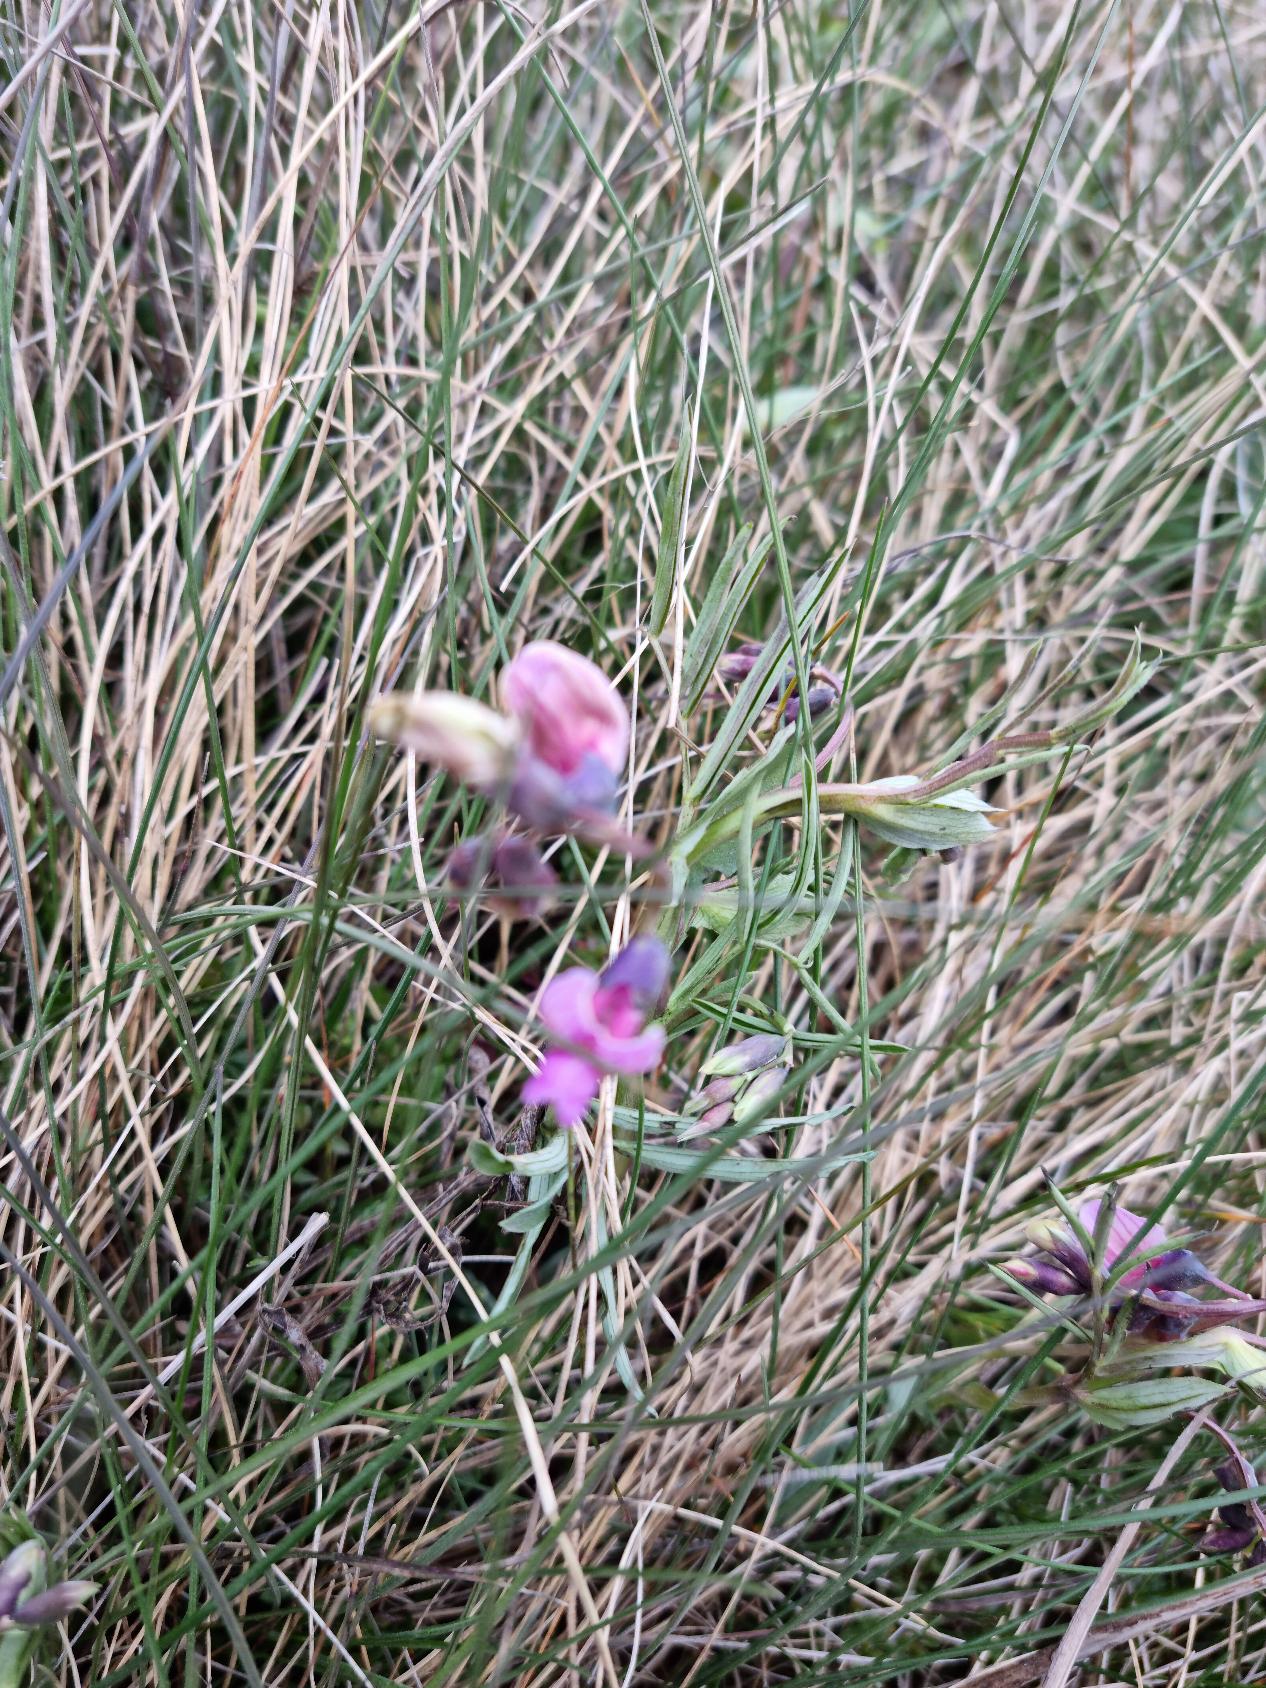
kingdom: Plantae
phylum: Tracheophyta
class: Magnoliopsida
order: Fabales
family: Fabaceae
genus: Lathyrus
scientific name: Lathyrus linifolius
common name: Krat-fladbælg
